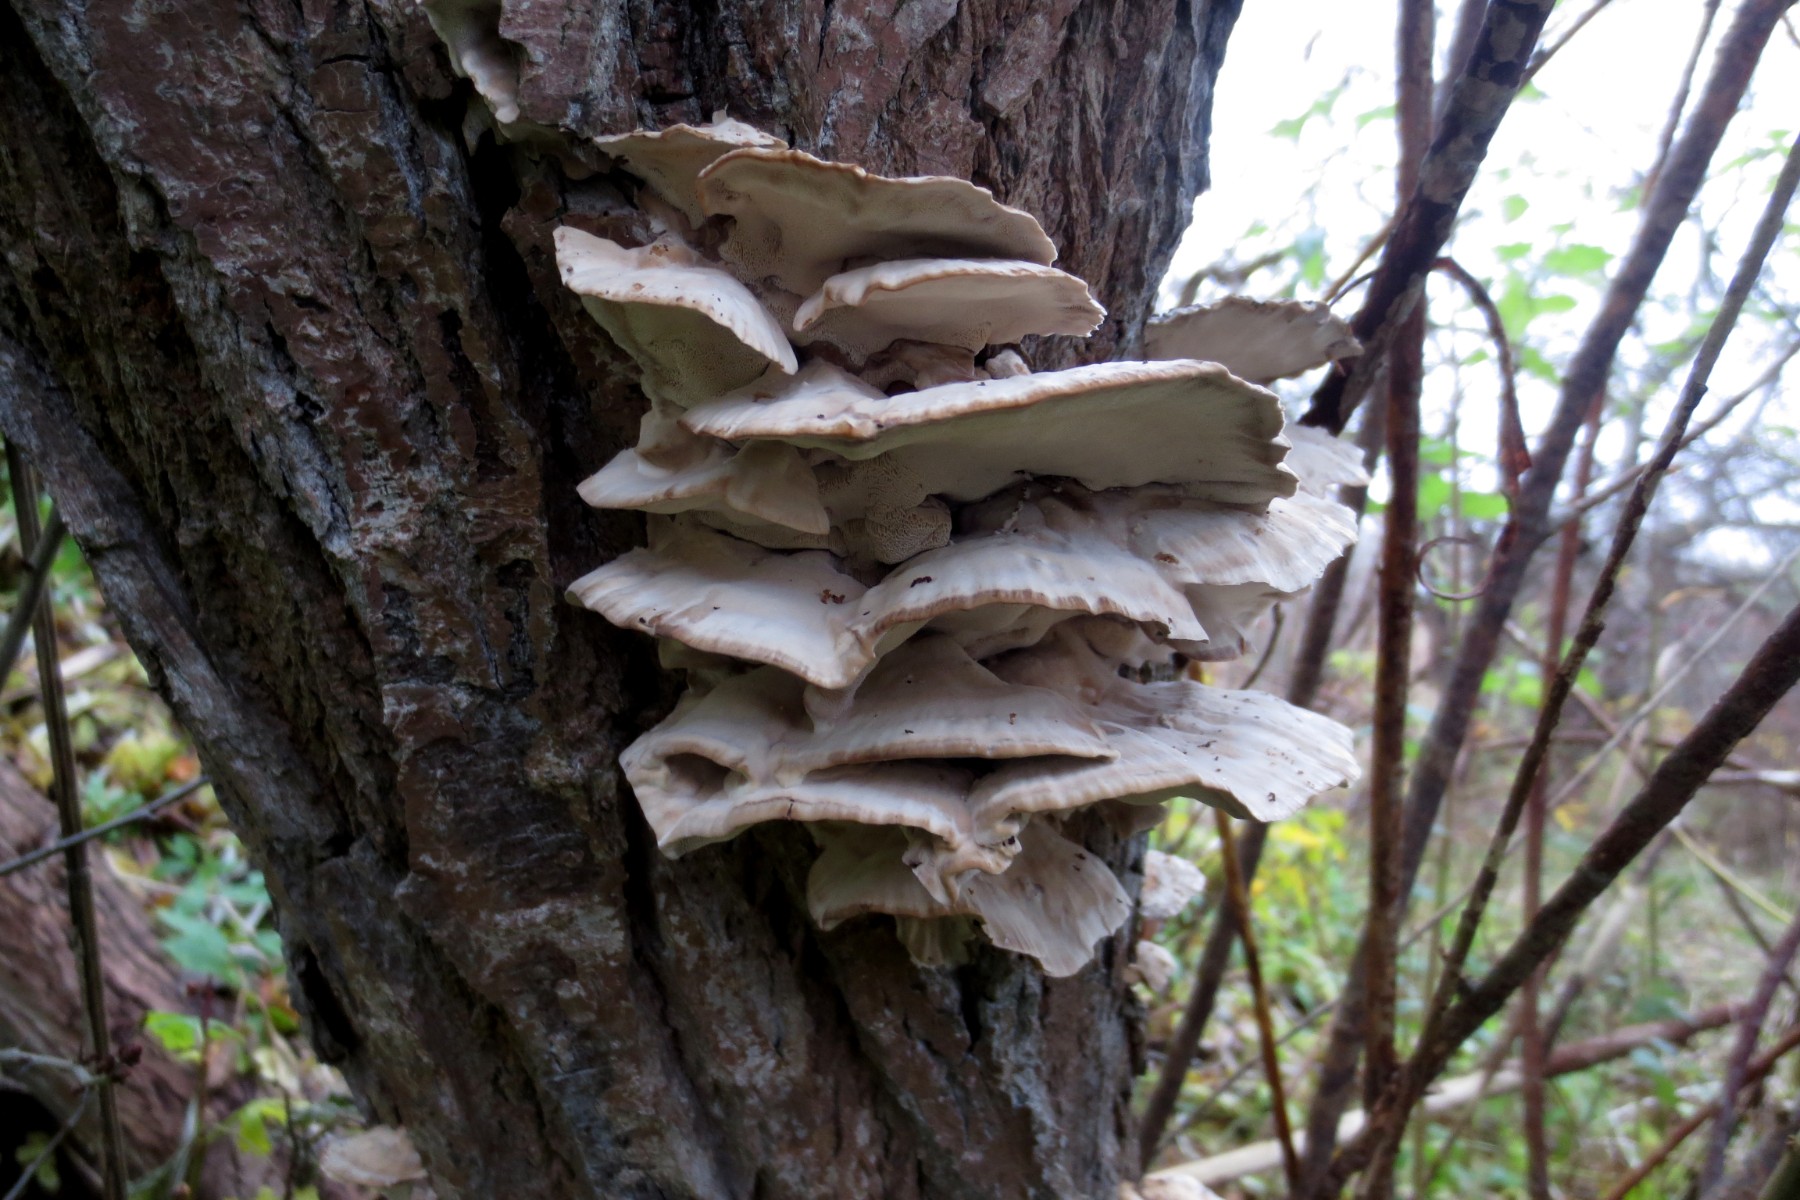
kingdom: Fungi
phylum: Basidiomycota
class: Agaricomycetes
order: Polyporales
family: Phanerochaetaceae
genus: Bjerkandera
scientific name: Bjerkandera fumosa
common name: grågul sodporesvamp
